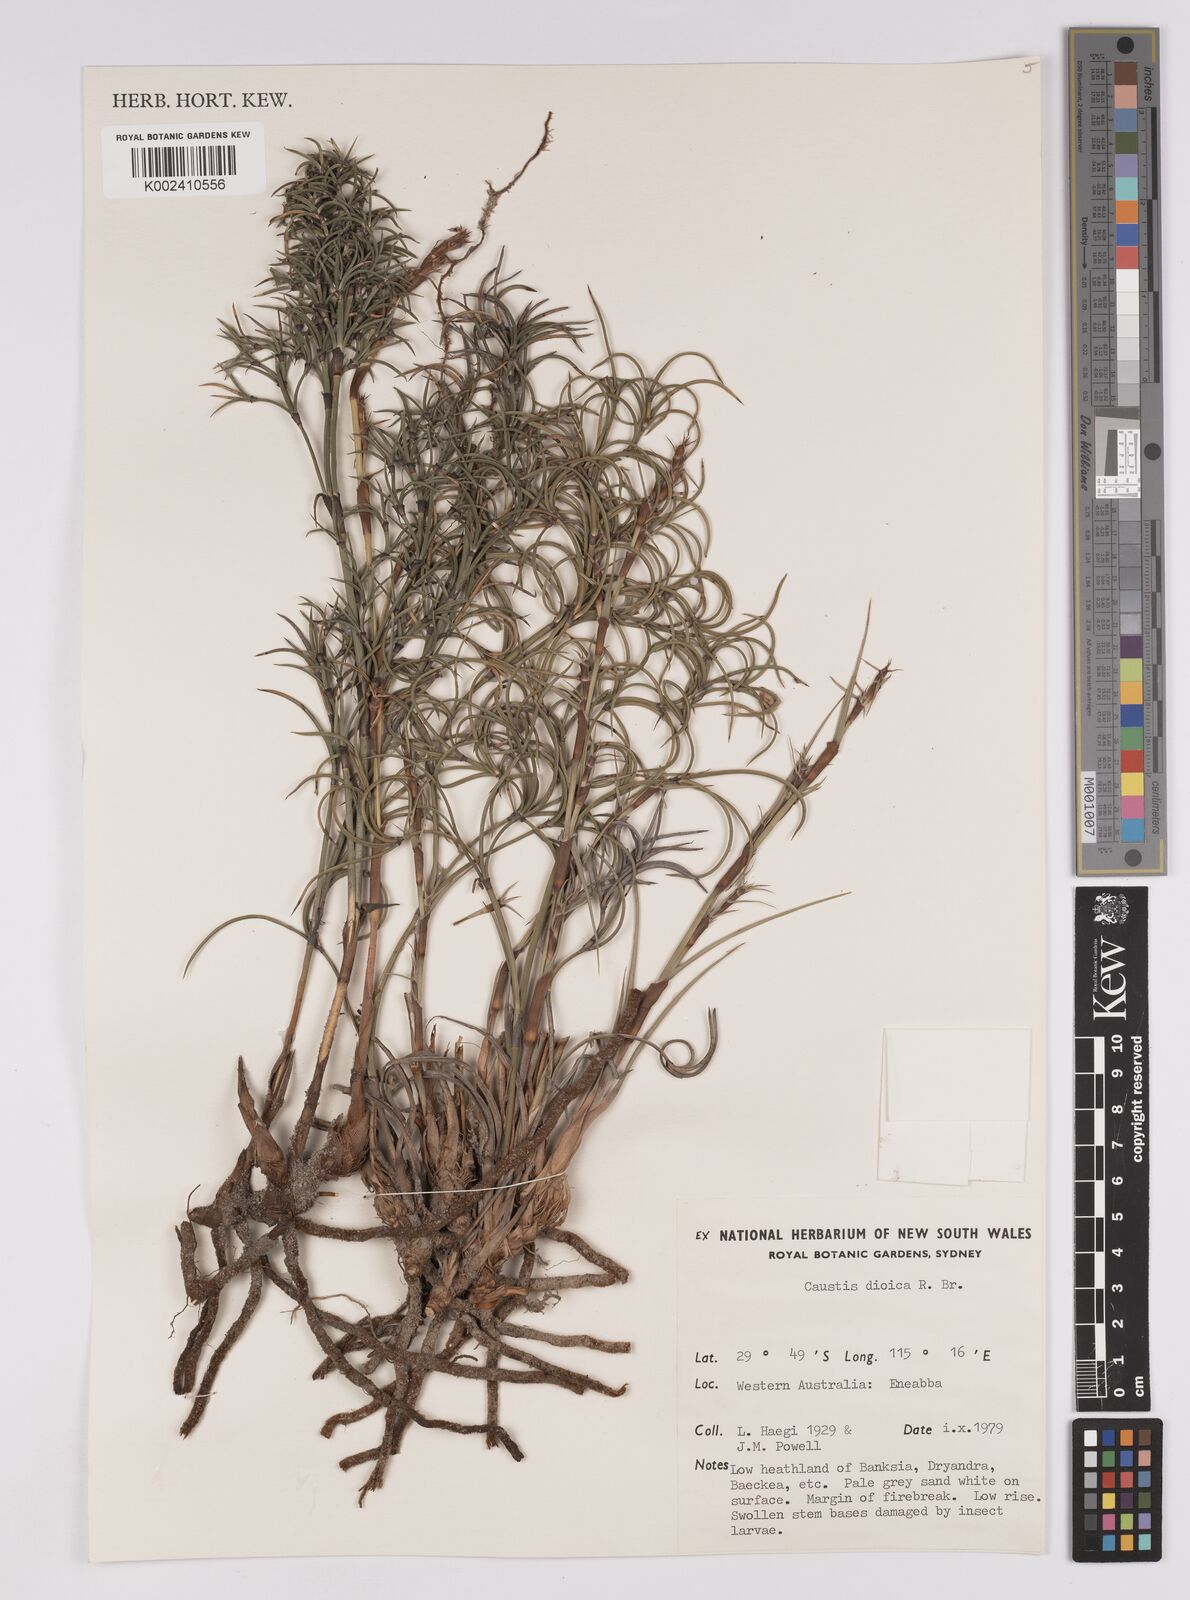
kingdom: Plantae
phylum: Tracheophyta
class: Liliopsida
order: Poales
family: Cyperaceae
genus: Caustis
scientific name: Caustis dioica
